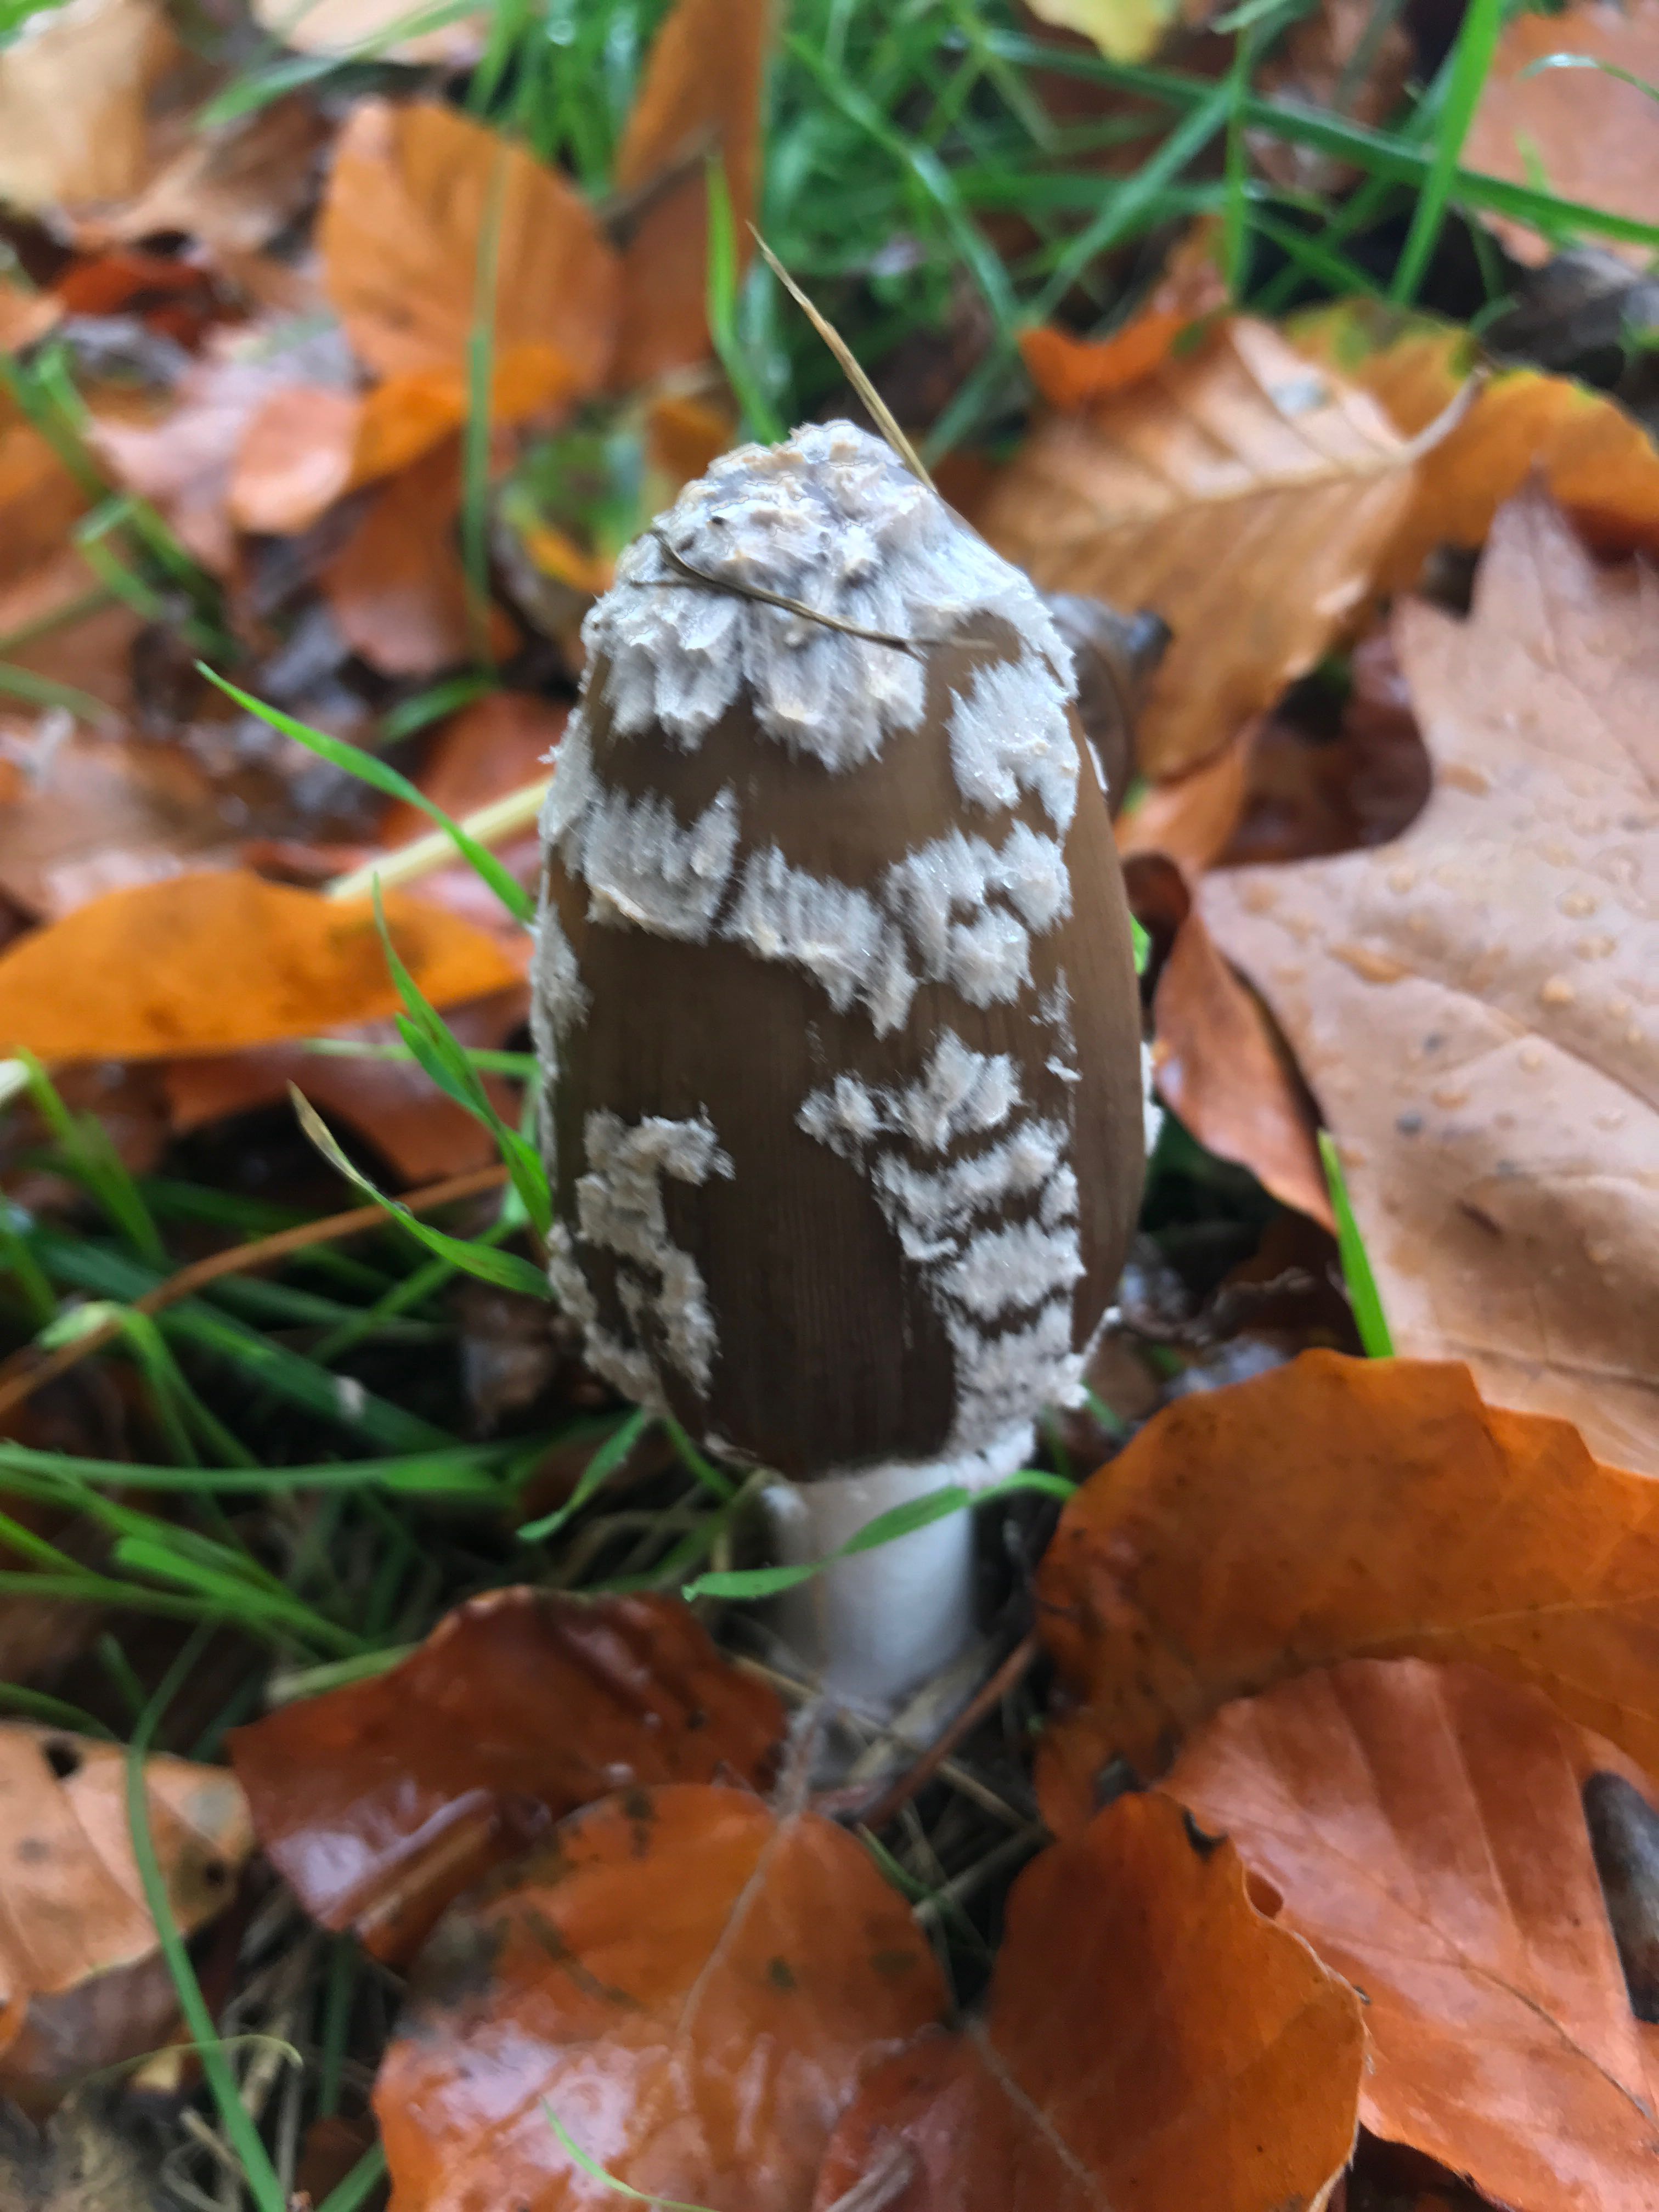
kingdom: Fungi
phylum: Basidiomycota
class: Agaricomycetes
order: Agaricales
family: Psathyrellaceae
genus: Coprinopsis
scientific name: Coprinopsis picacea
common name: skade-blækhat
